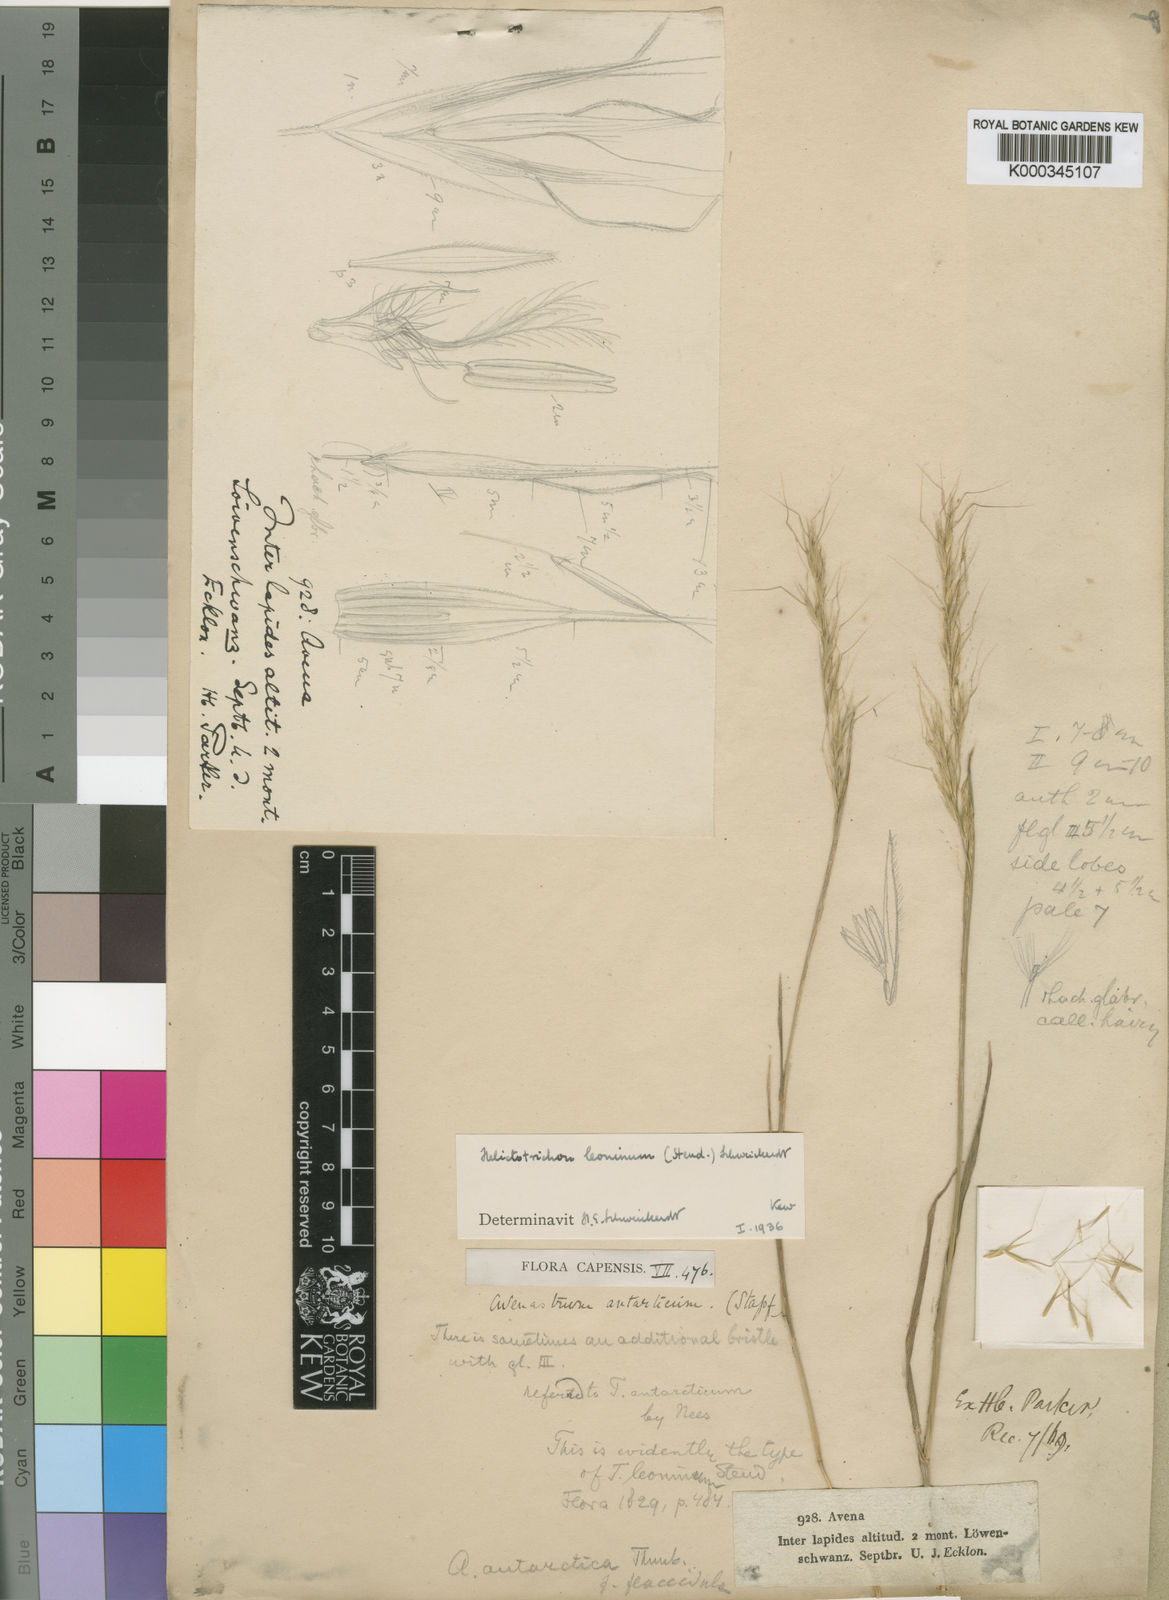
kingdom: Plantae
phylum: Tracheophyta
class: Liliopsida
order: Poales
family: Poaceae
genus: Trisetopsis
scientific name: Trisetopsis leonina
